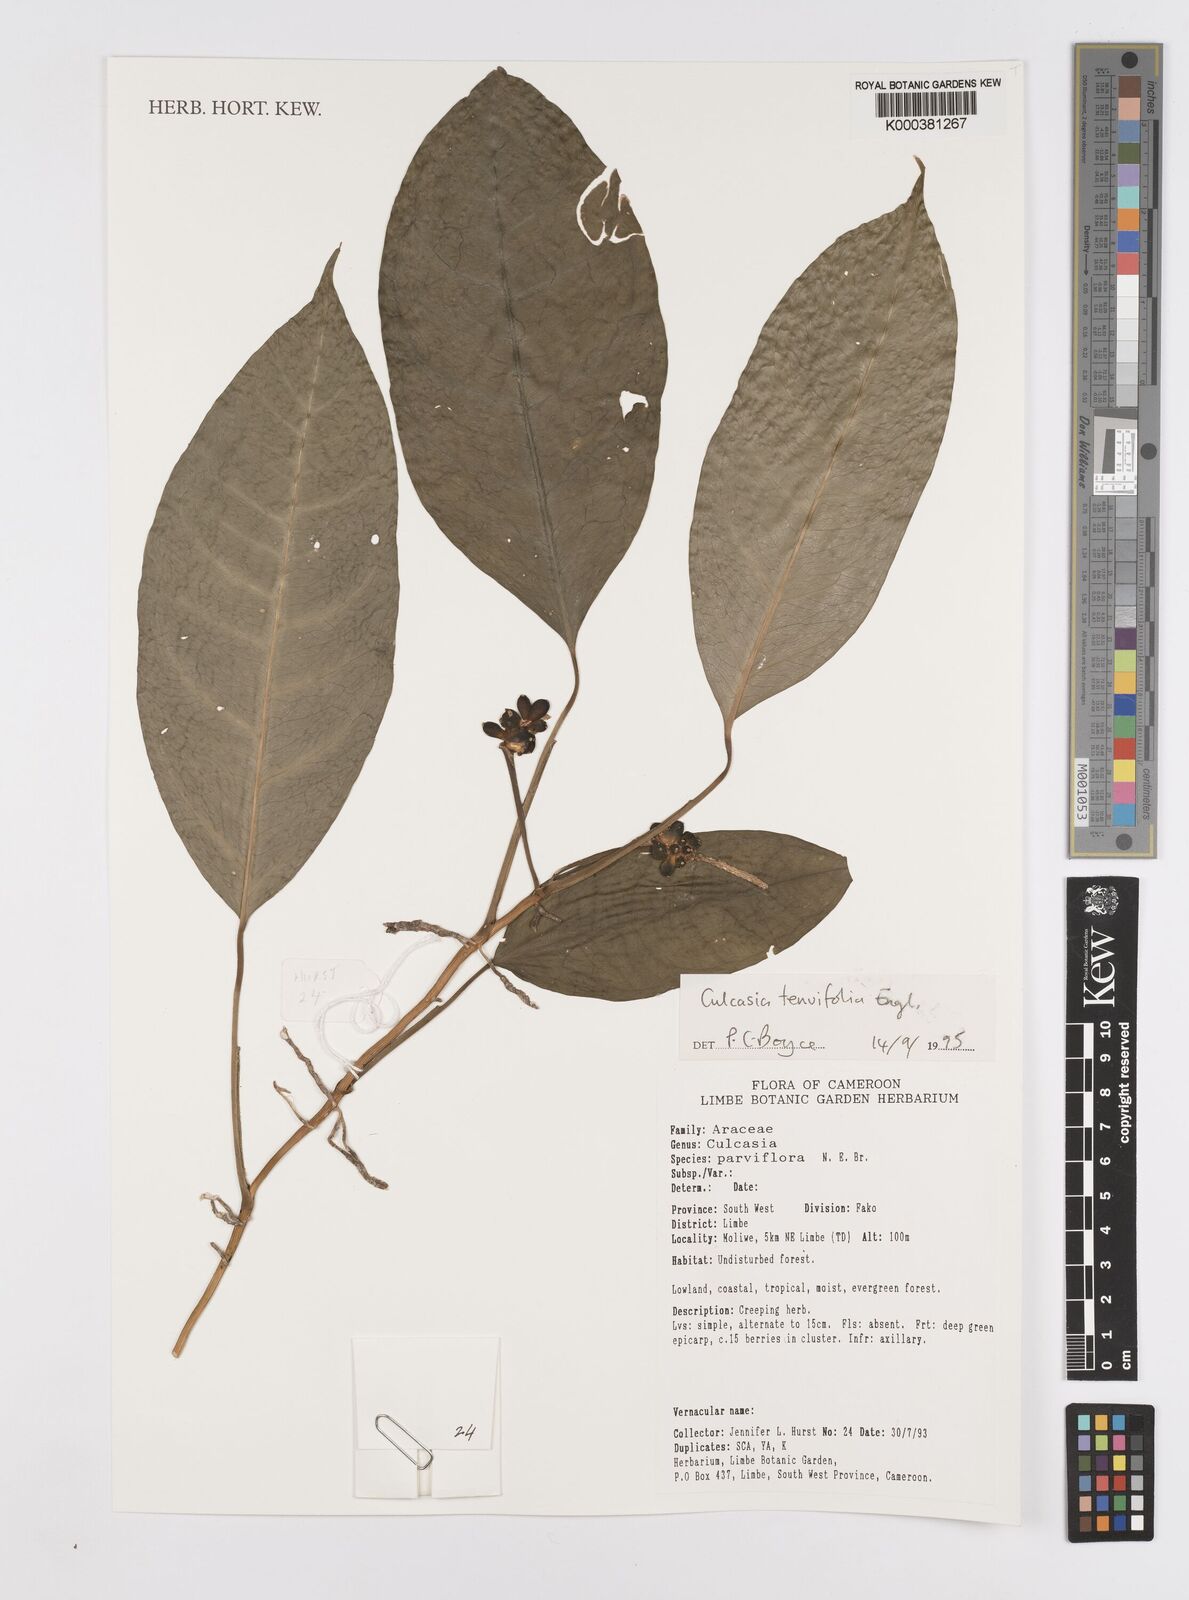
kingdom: Plantae
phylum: Tracheophyta
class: Liliopsida
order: Alismatales
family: Araceae
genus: Culcasia
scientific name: Culcasia tenuifolia
